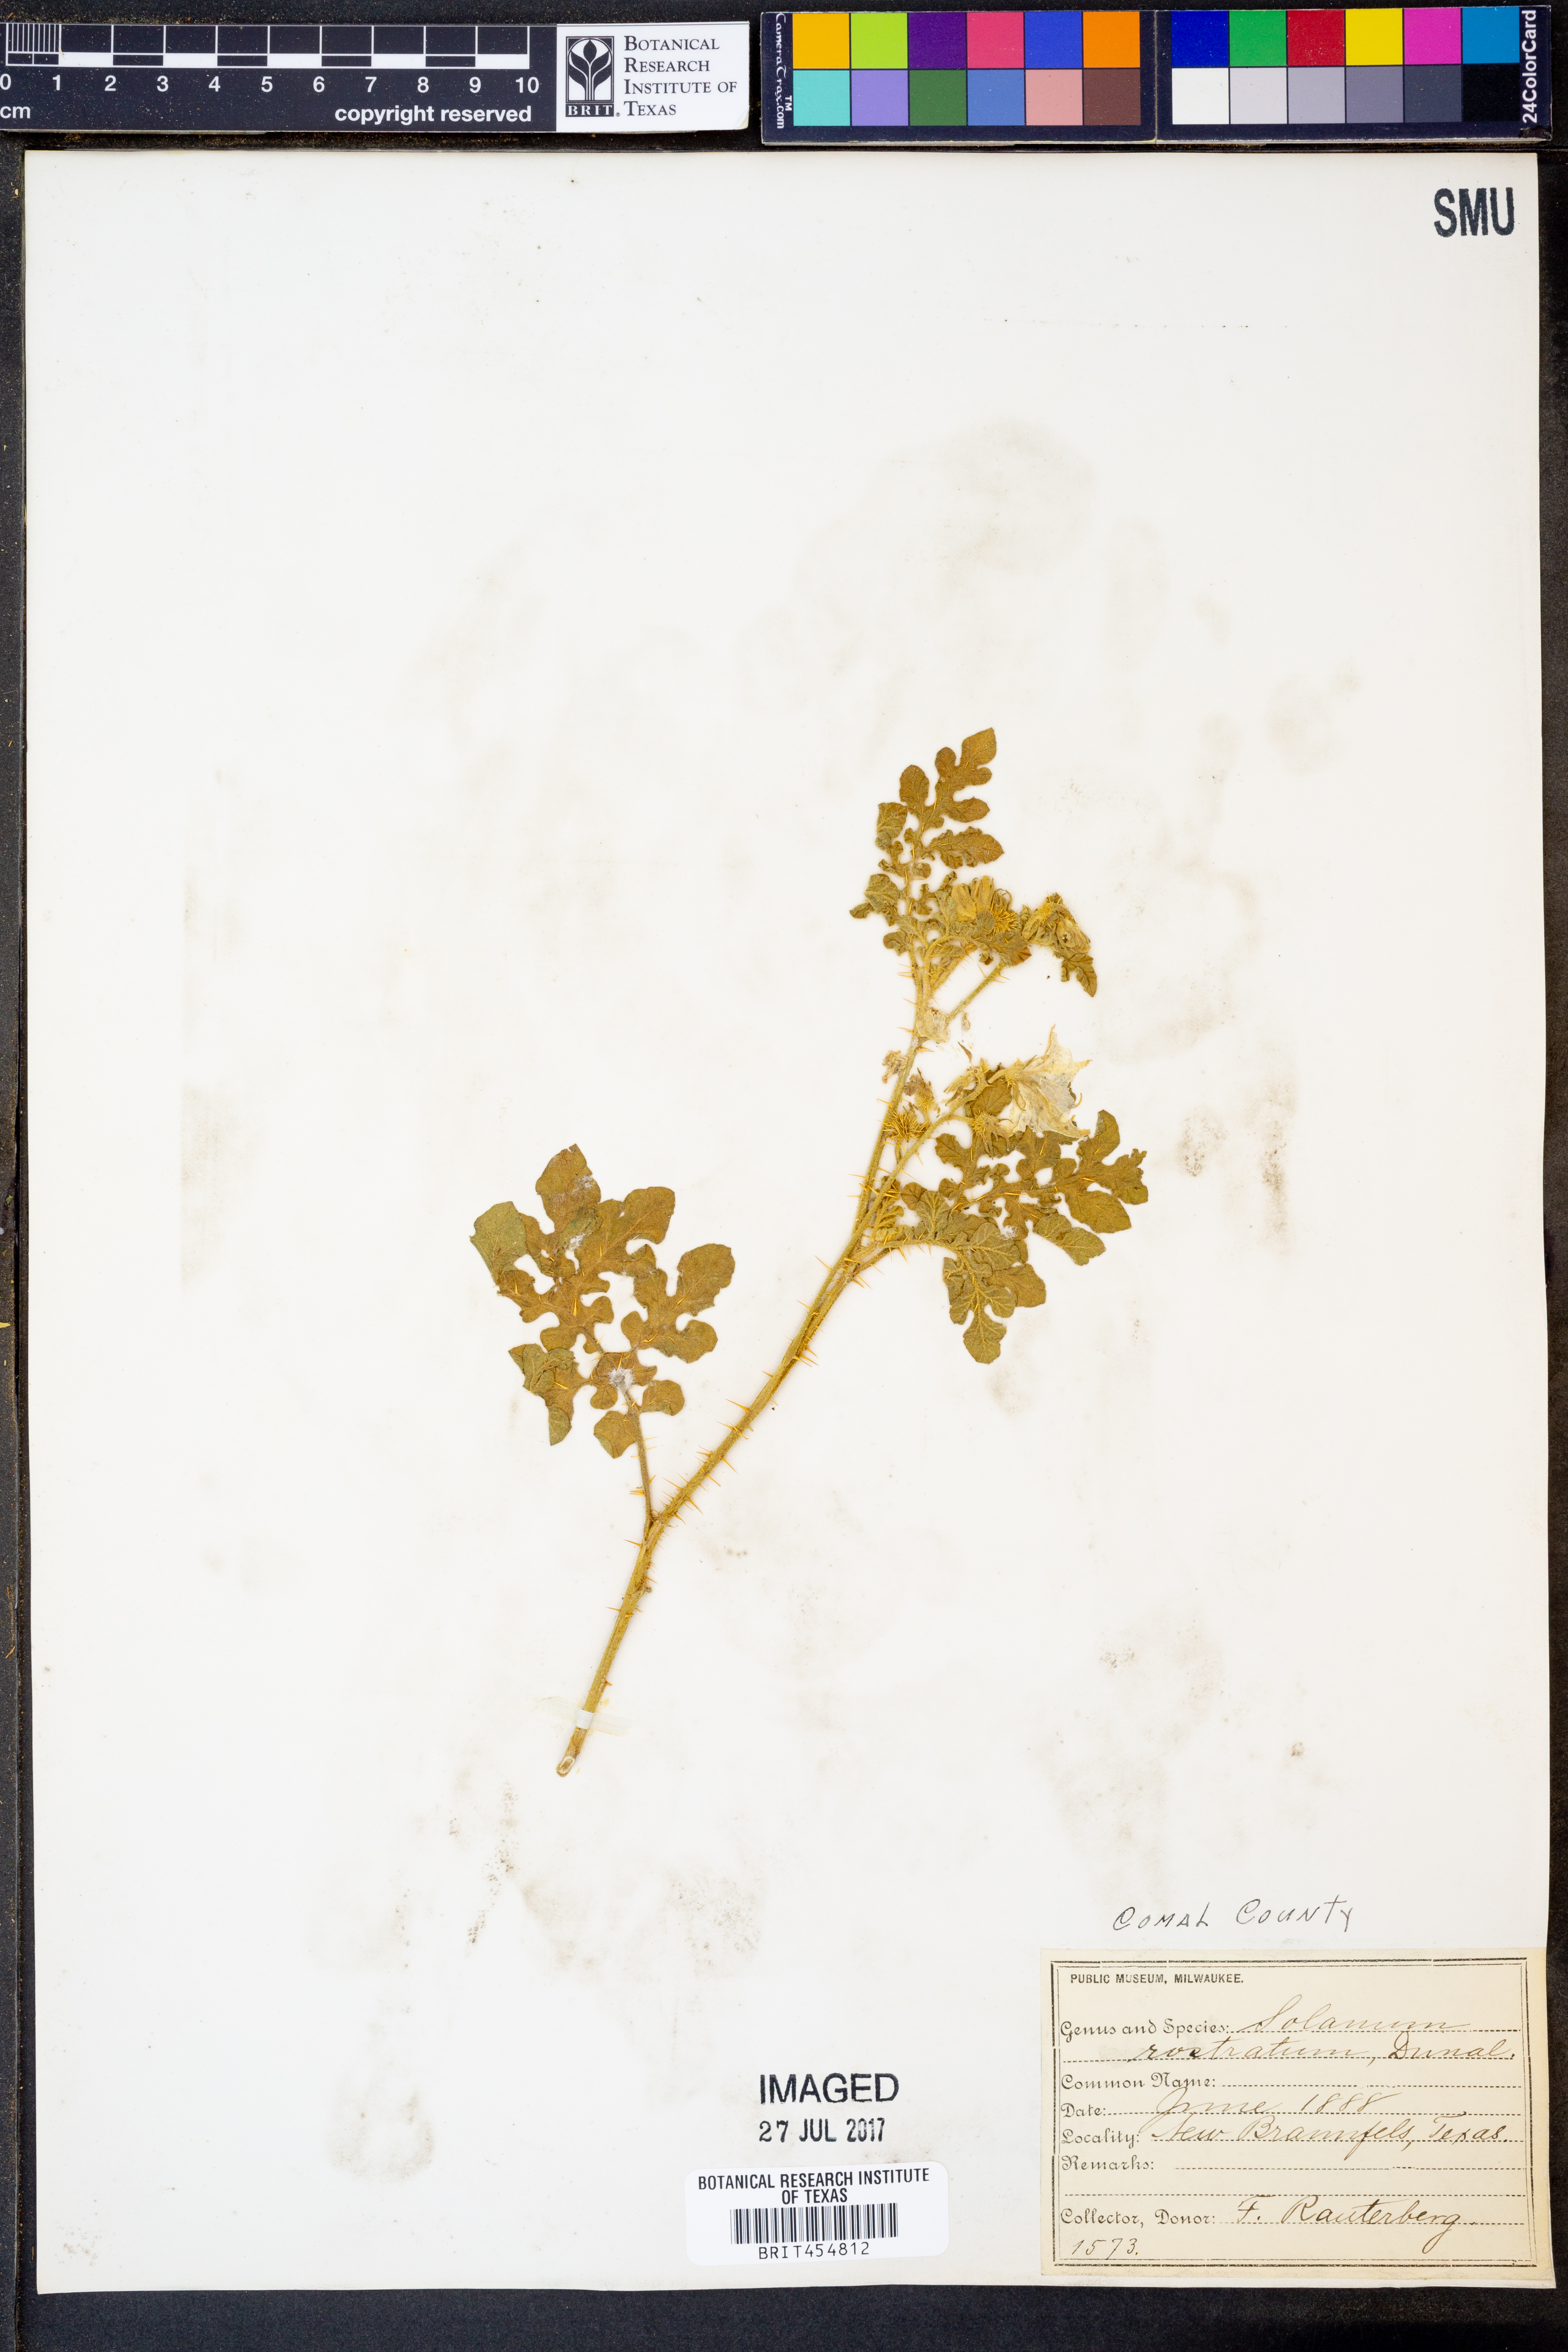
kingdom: Plantae
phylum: Tracheophyta
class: Magnoliopsida
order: Solanales
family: Solanaceae
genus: Solanum
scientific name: Solanum angustifolium
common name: Buffalobur nightshade
